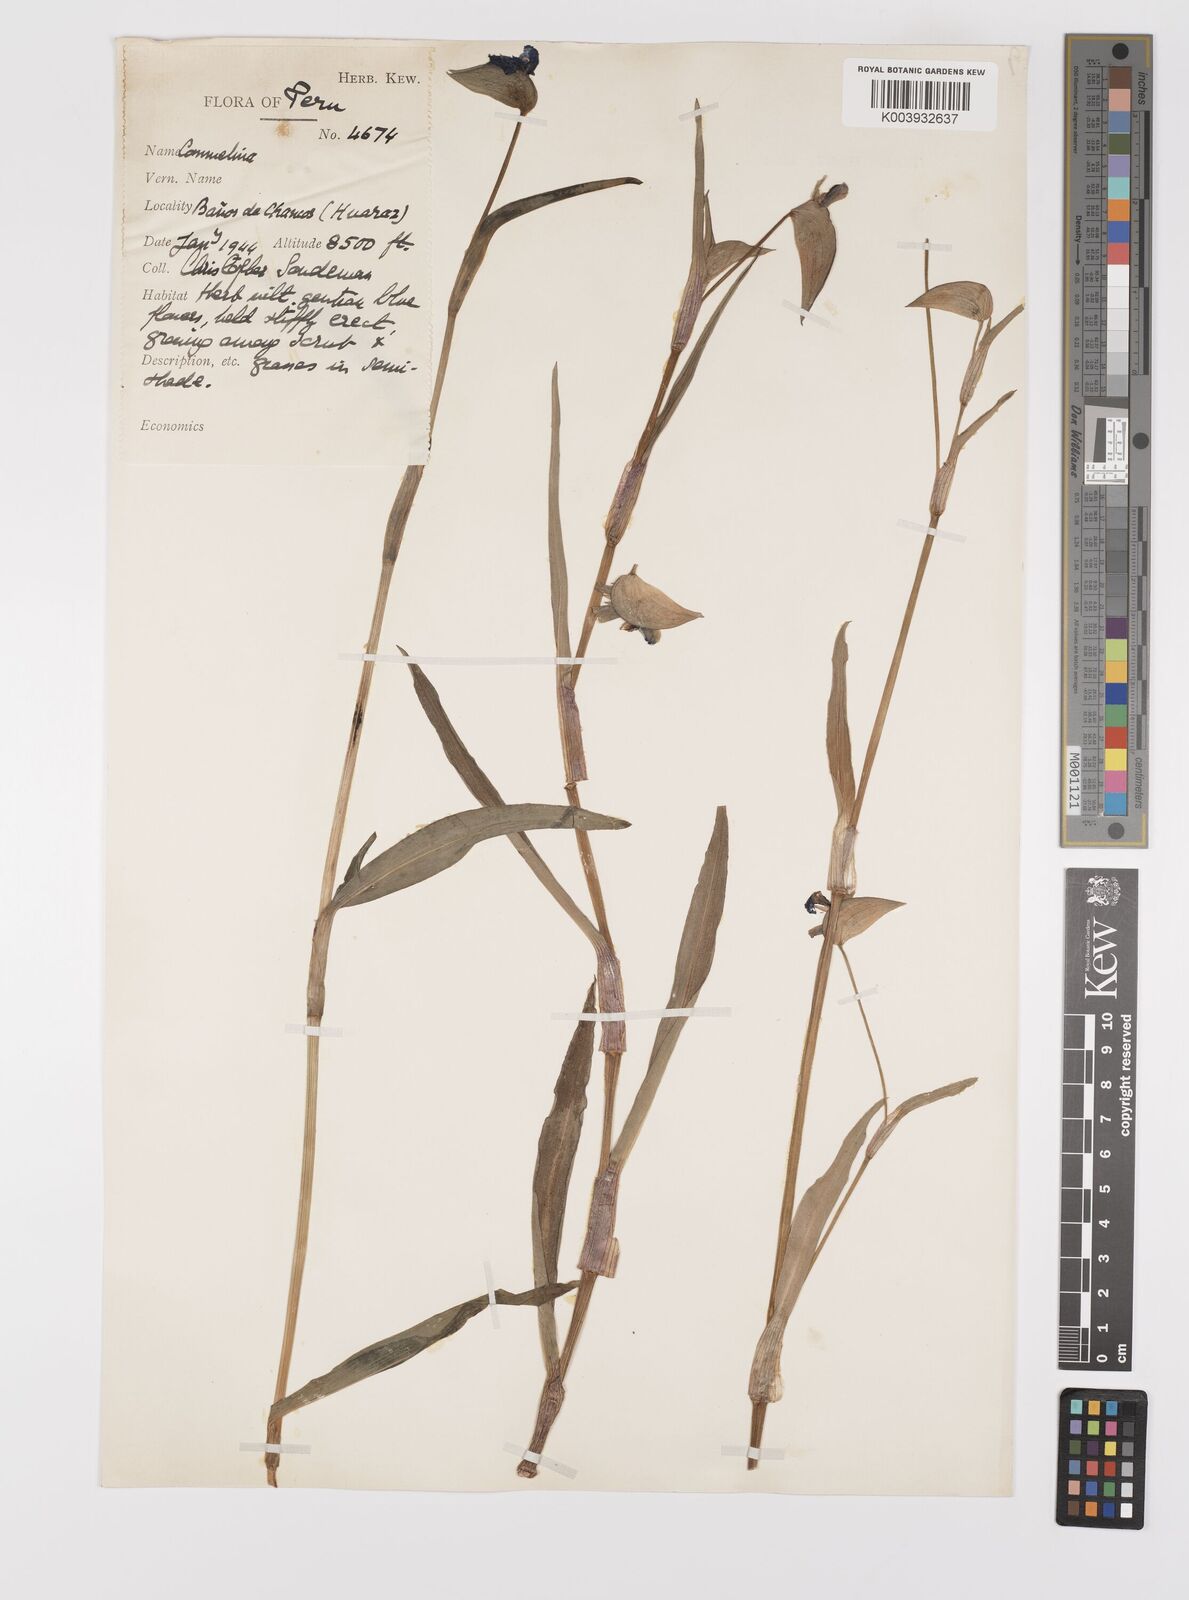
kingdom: Plantae
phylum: Tracheophyta
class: Liliopsida
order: Commelinales
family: Commelinaceae
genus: Commelina
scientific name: Commelina tuberosa
